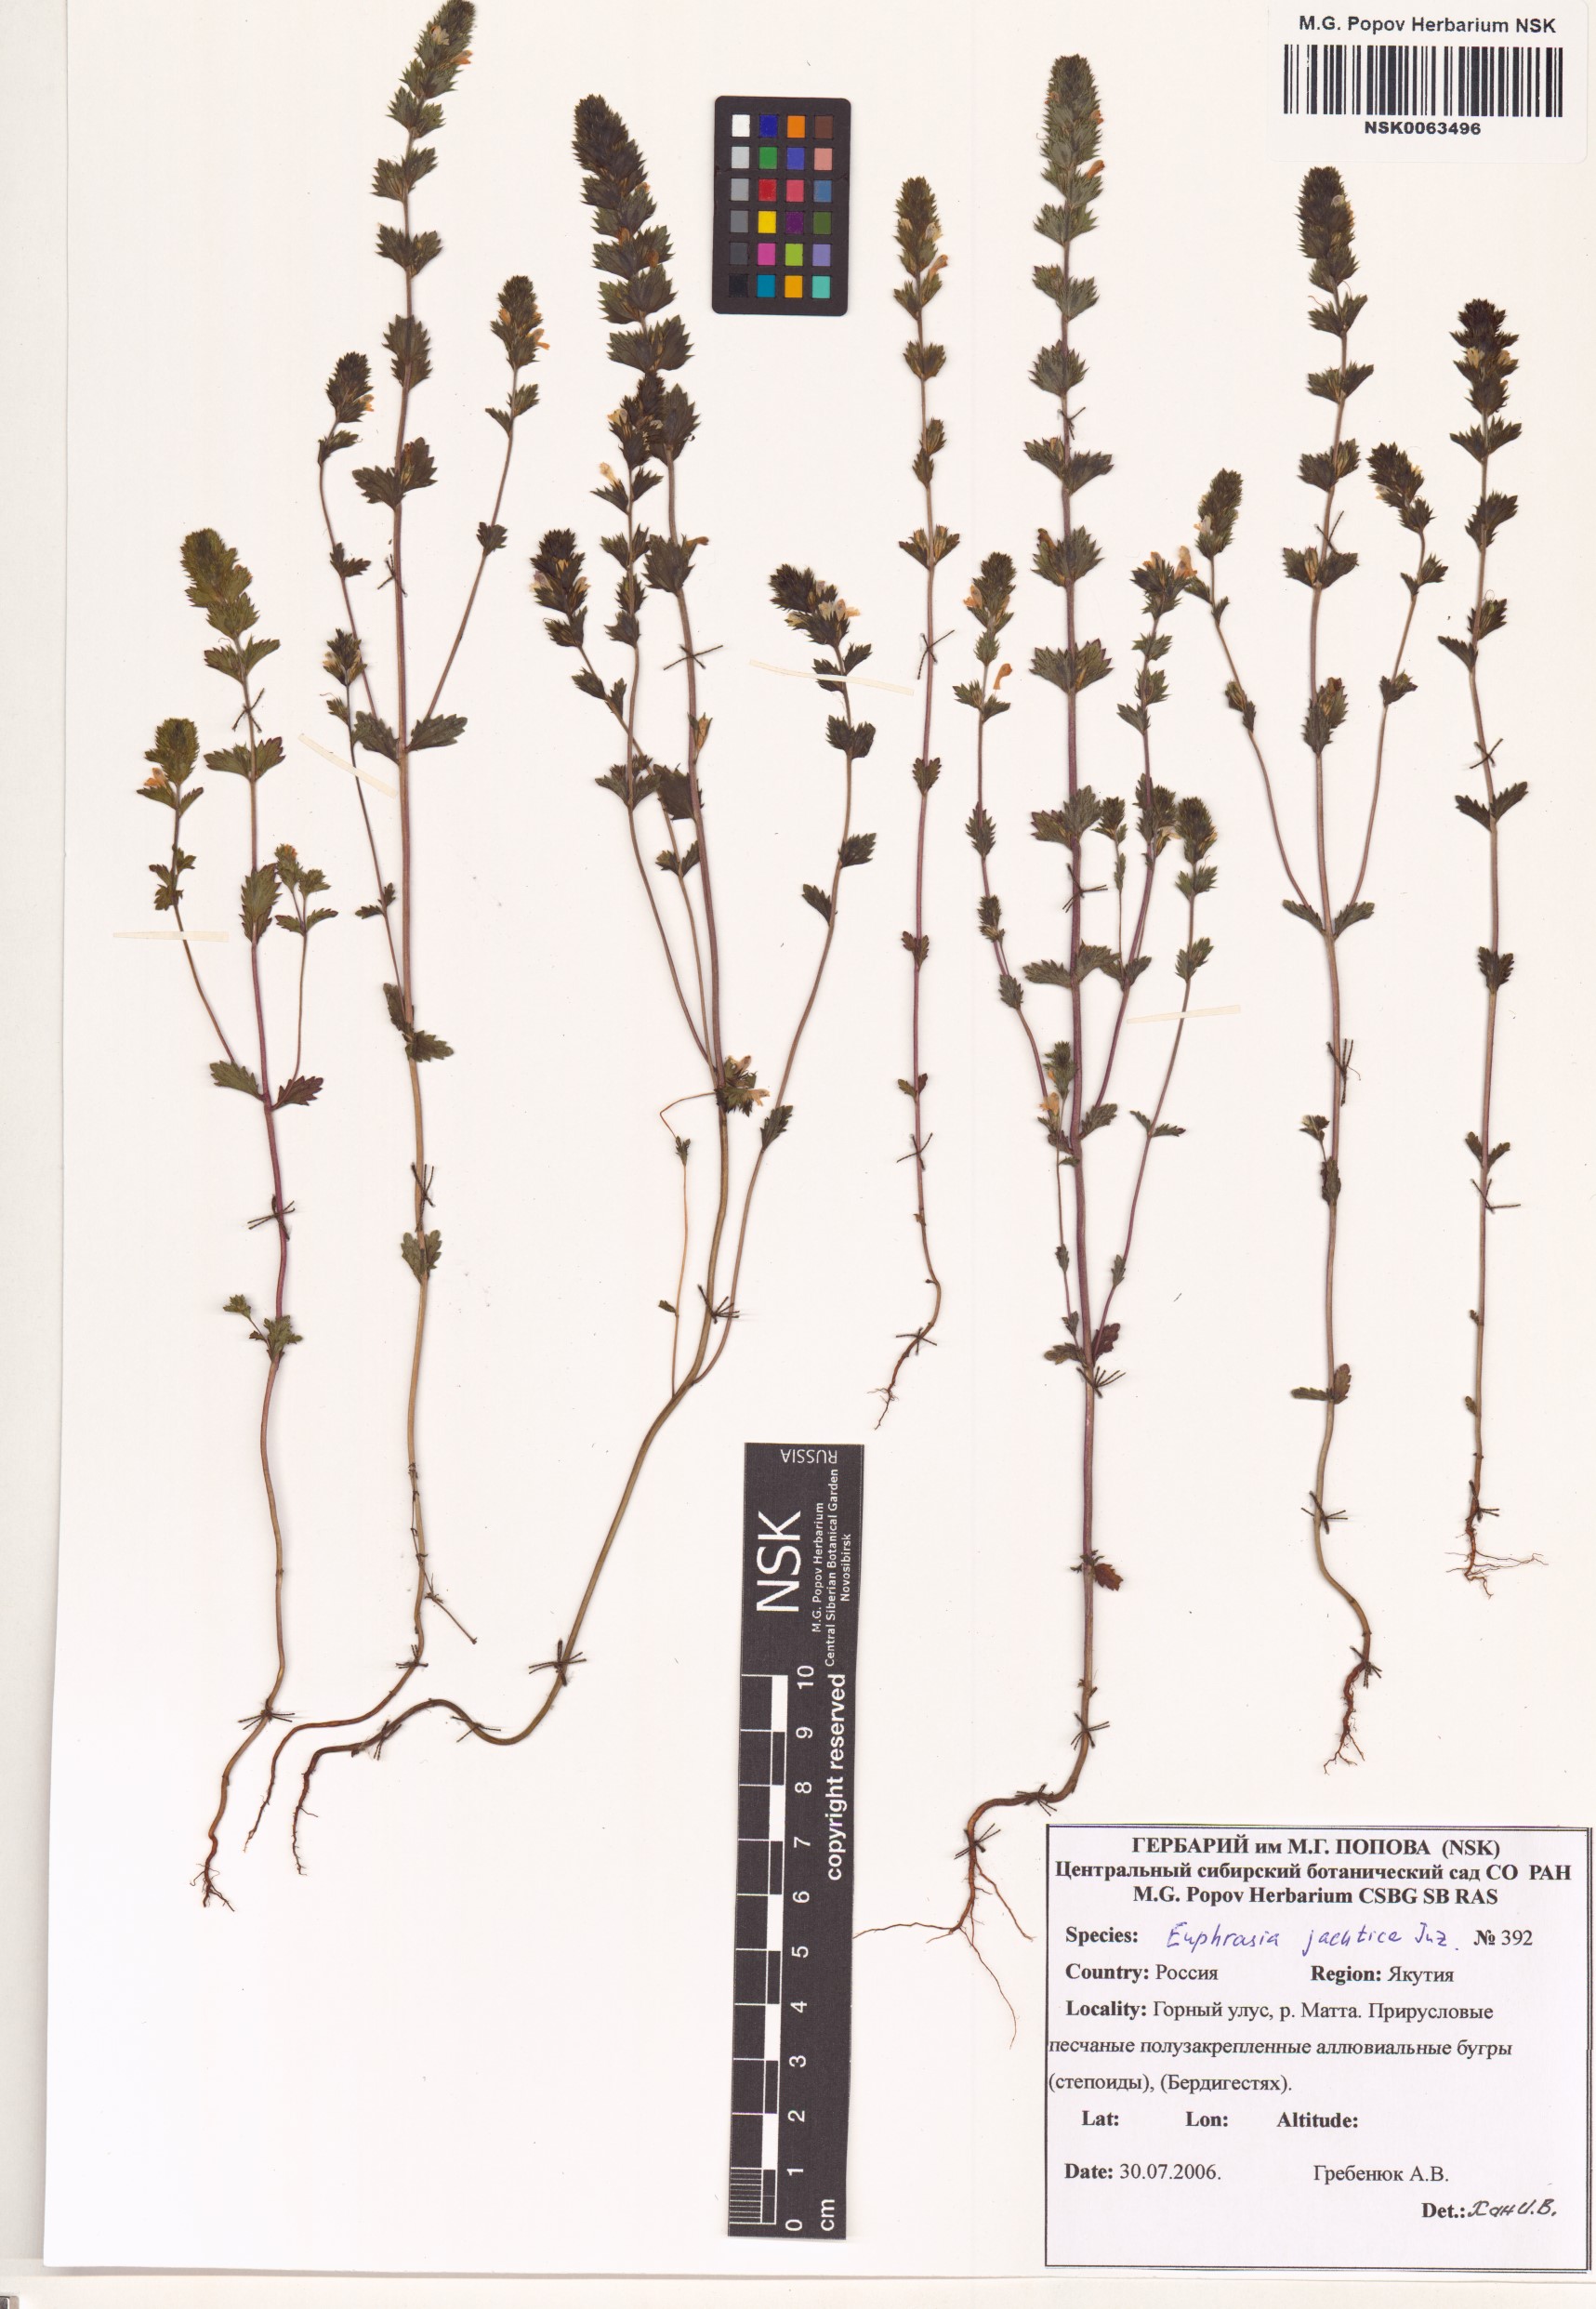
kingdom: Plantae
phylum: Tracheophyta
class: Magnoliopsida
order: Lamiales
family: Orobanchaceae
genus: Euphrasia
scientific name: Euphrasia jacutica
